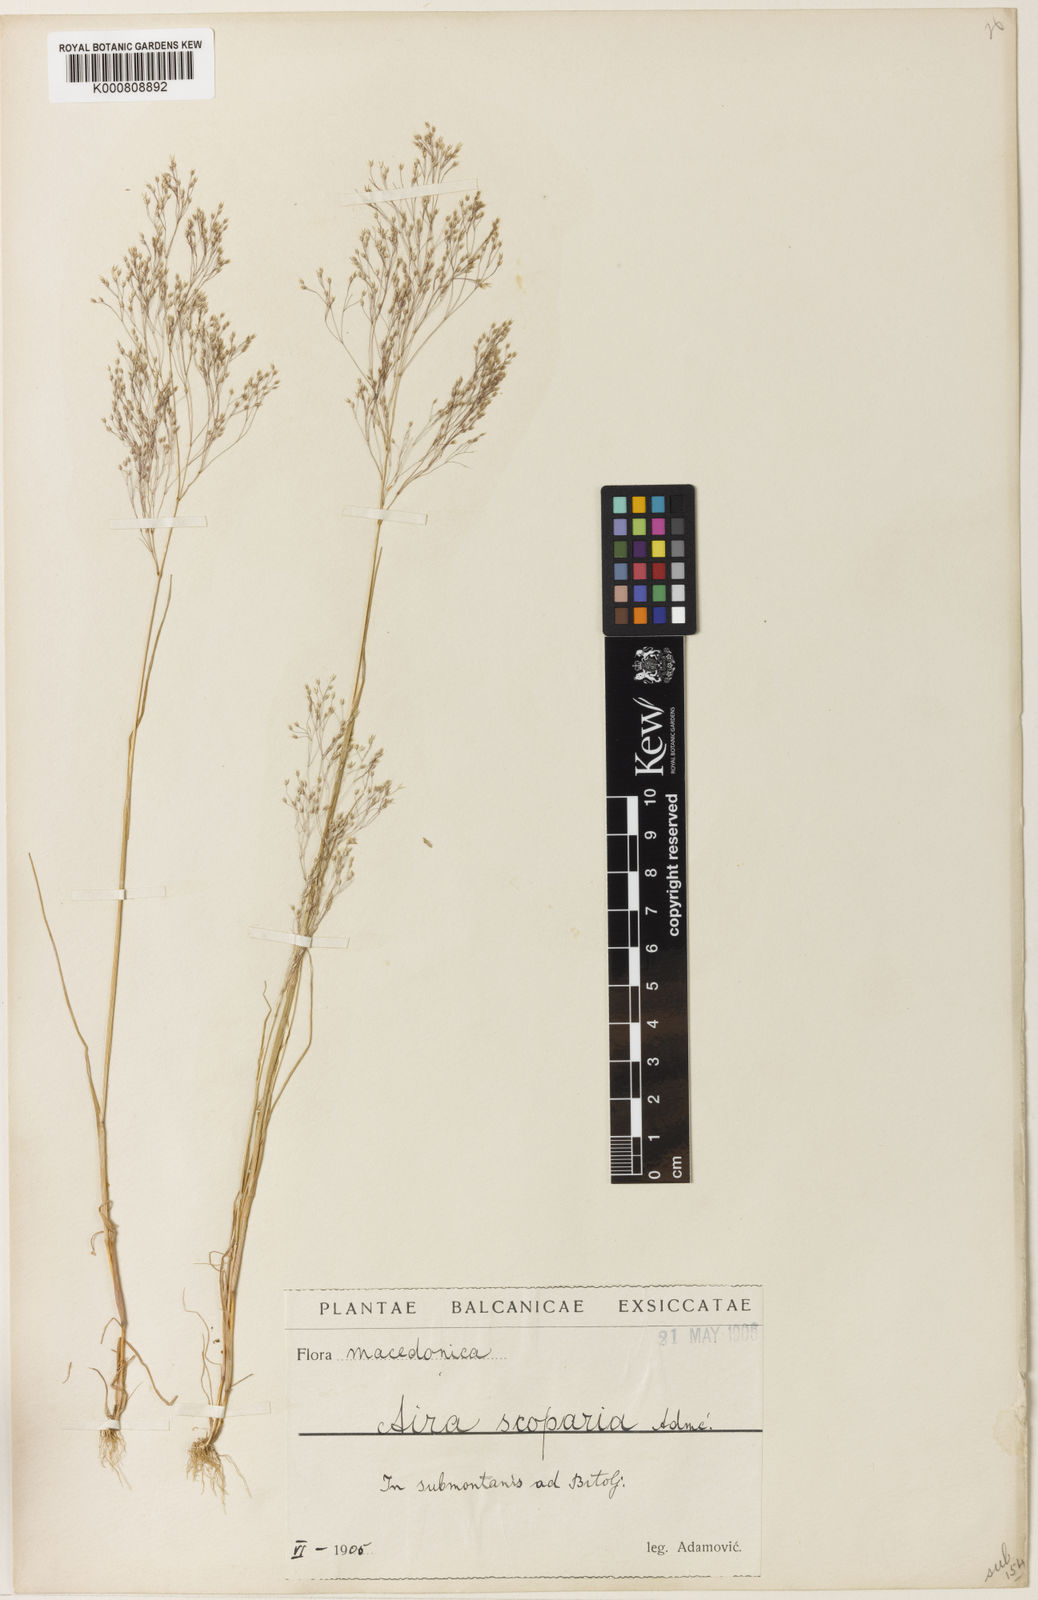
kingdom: Plantae
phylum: Tracheophyta
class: Liliopsida
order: Poales
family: Poaceae
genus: Aira
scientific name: Aira elegans
